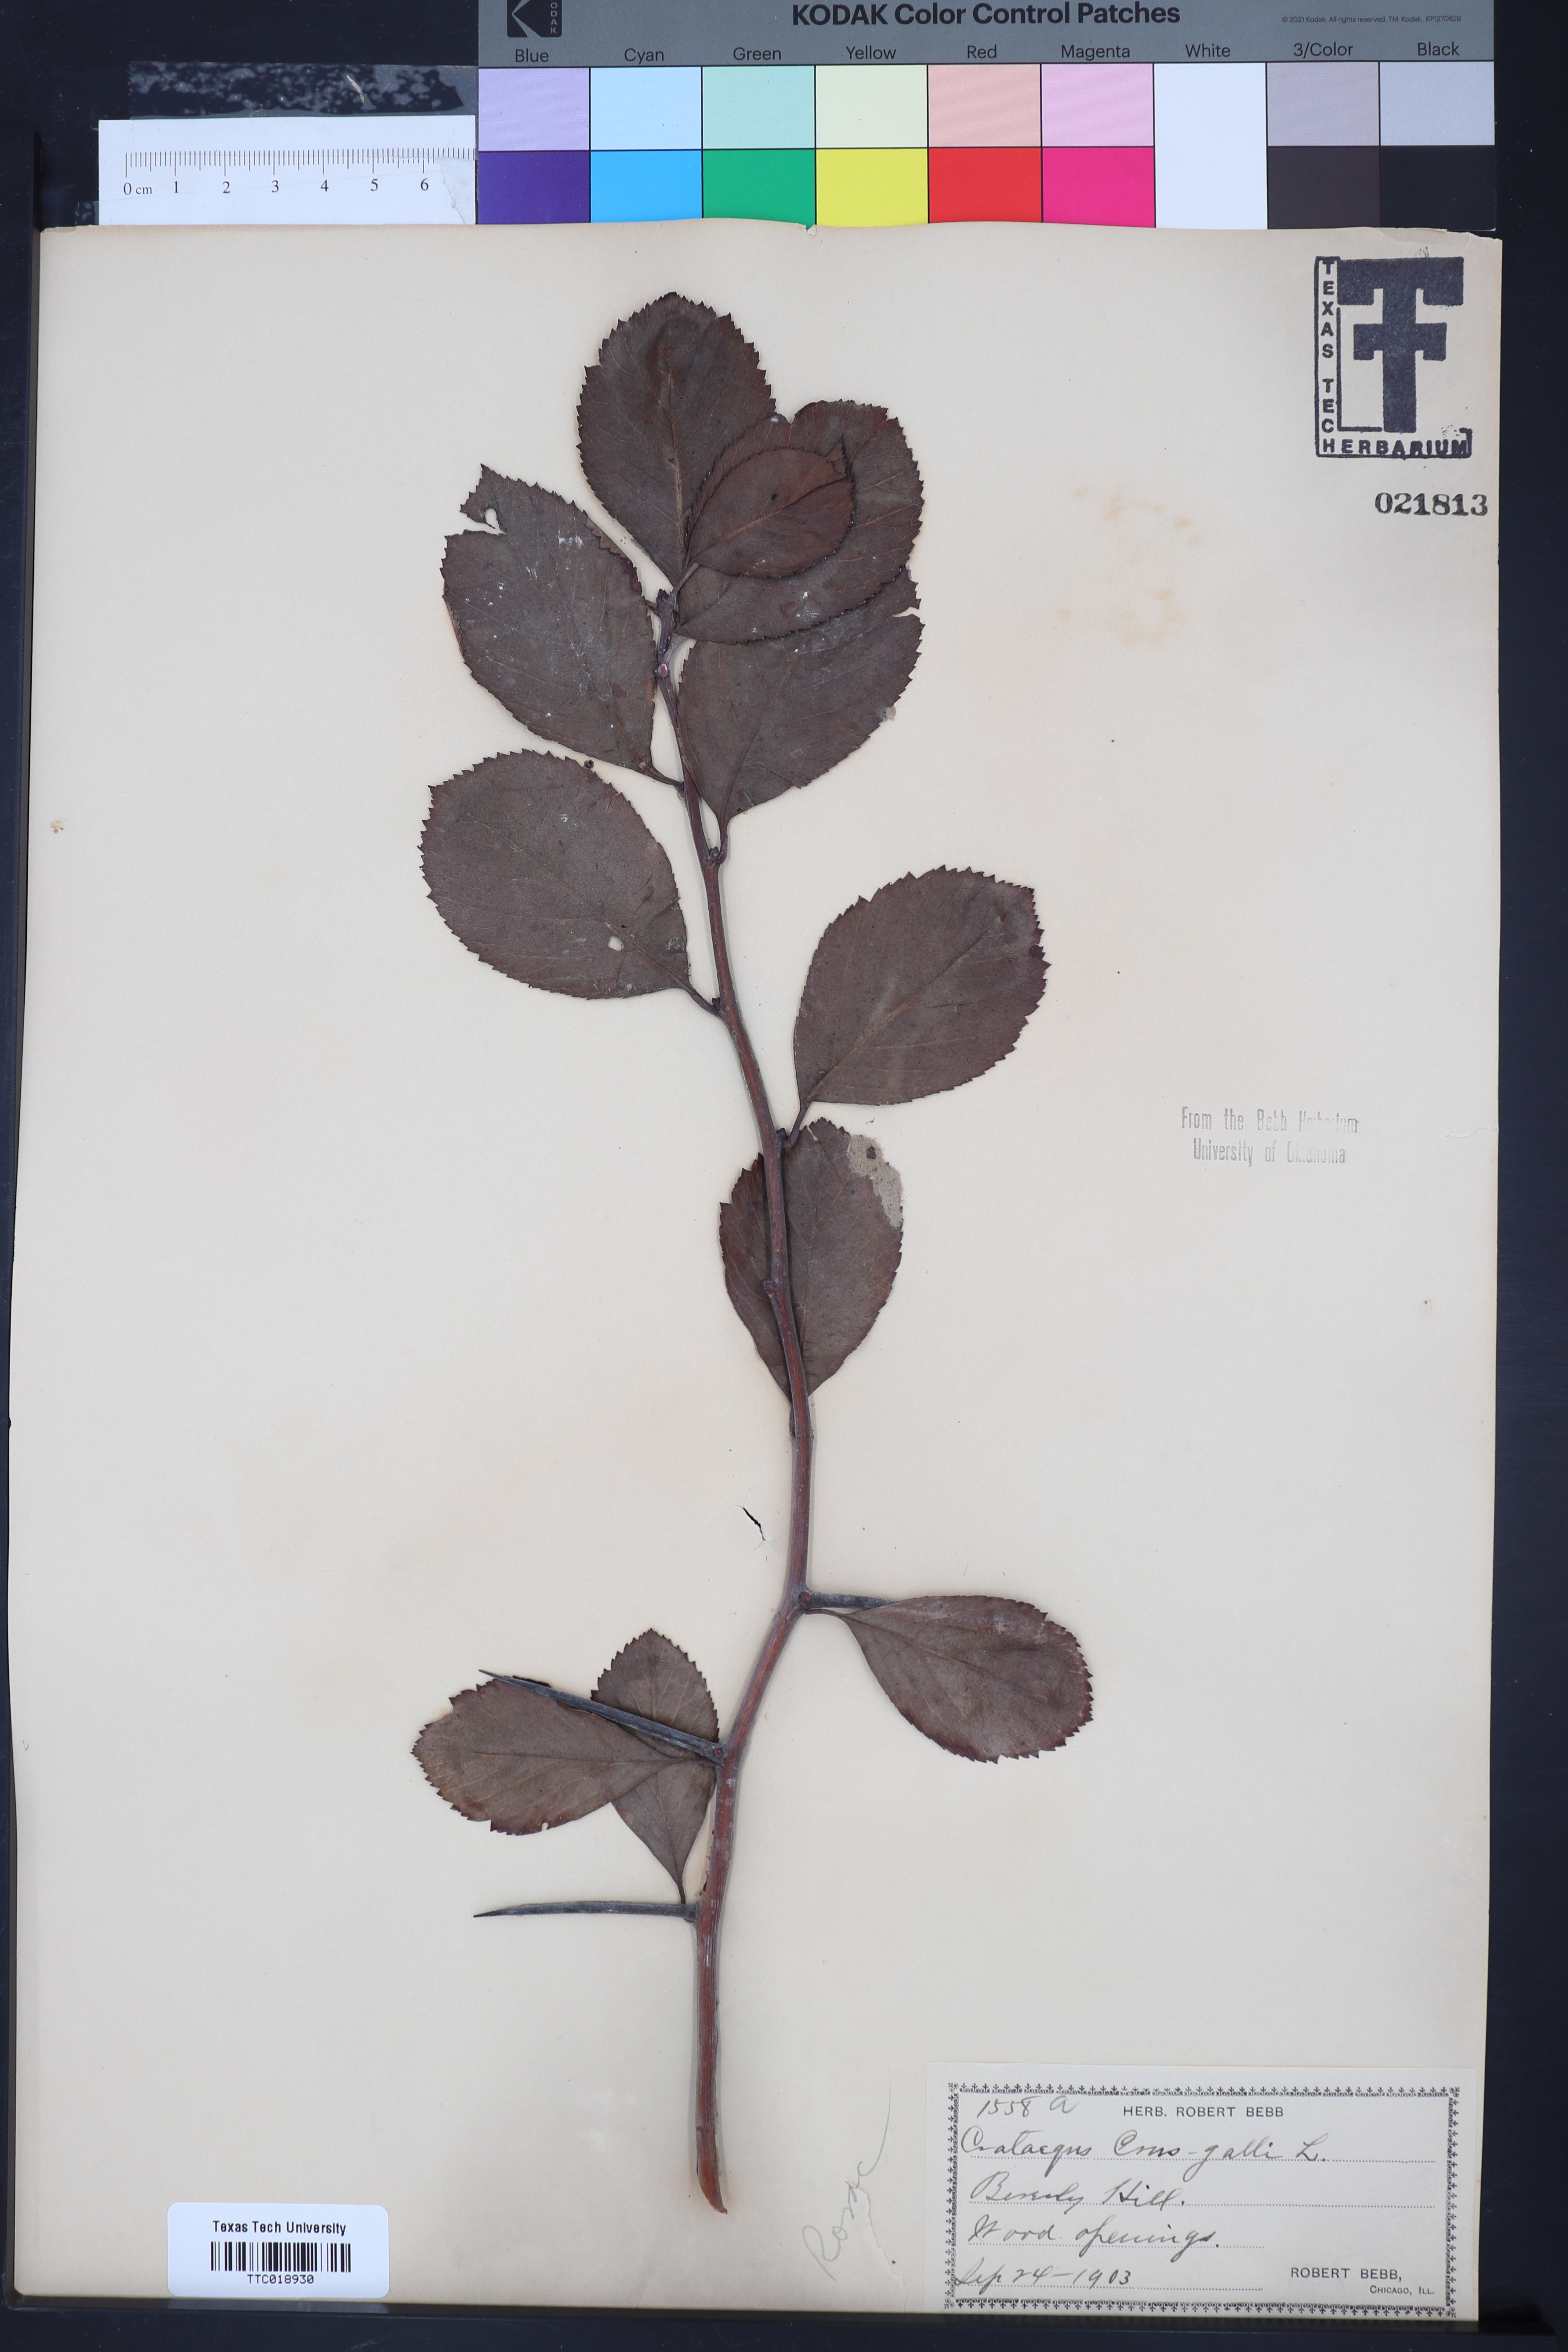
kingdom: Plantae
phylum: Tracheophyta
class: Magnoliopsida
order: Rosales
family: Rosaceae
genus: Crataegus
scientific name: Crataegus crus-galli
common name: Cockspurthorn
